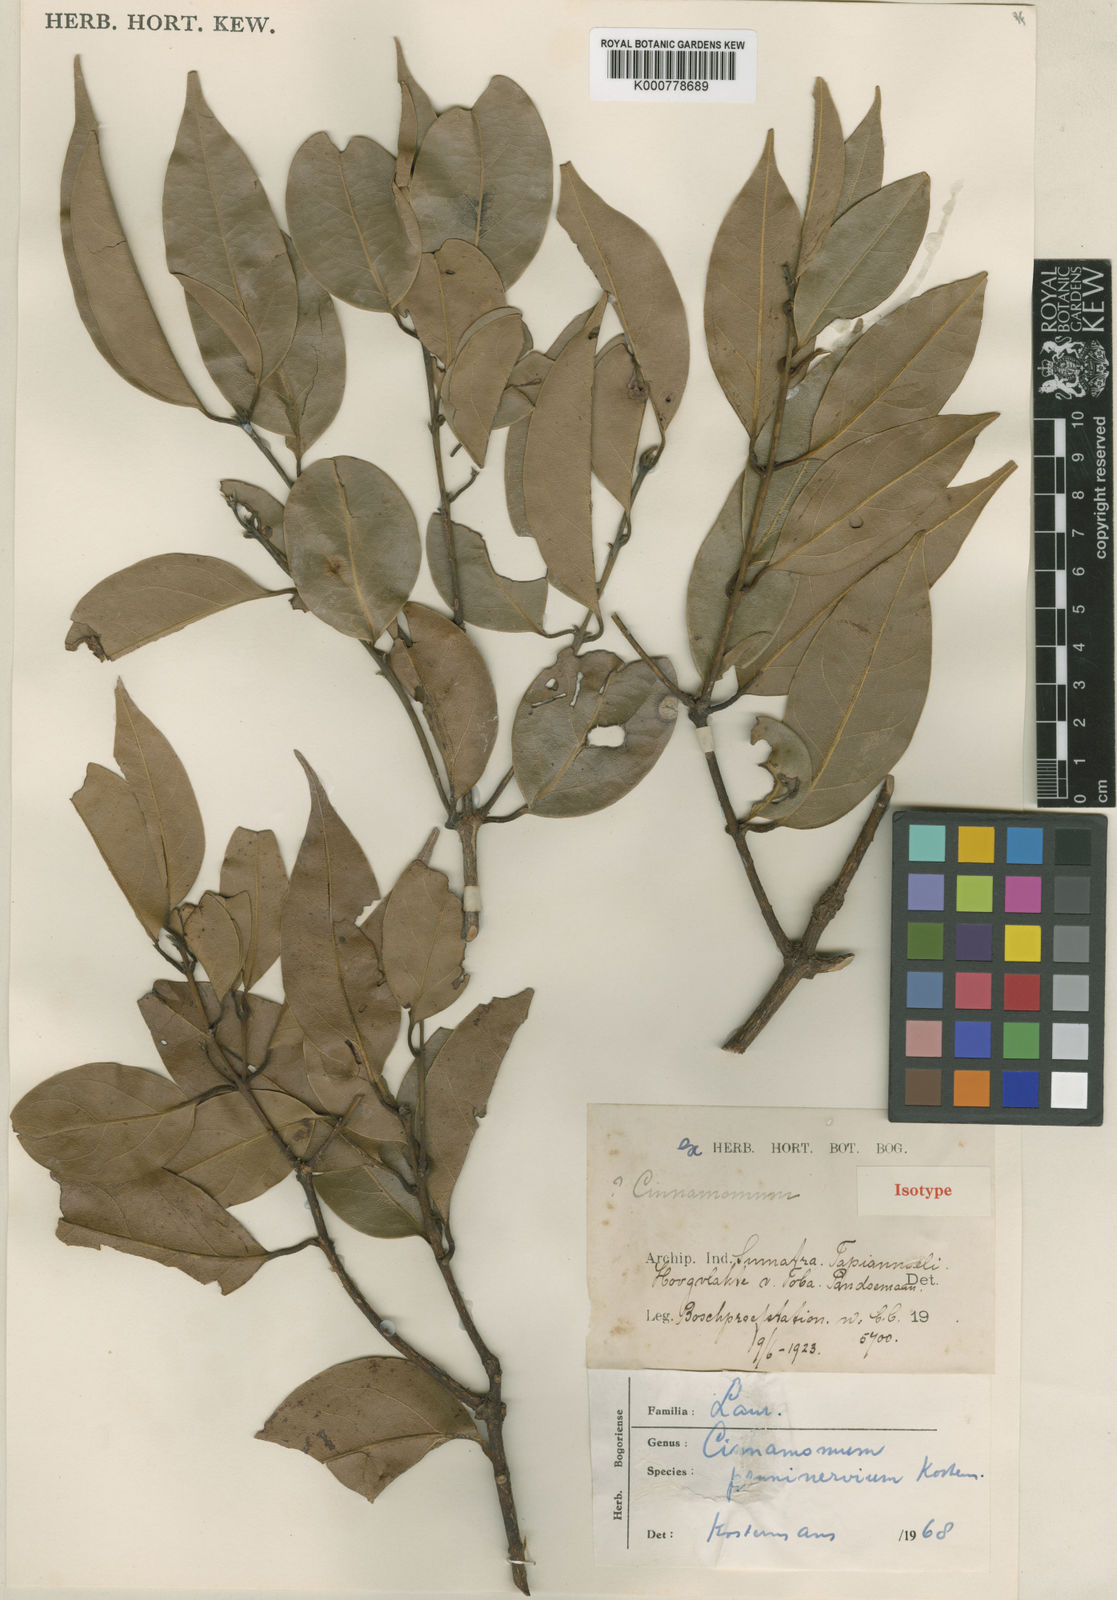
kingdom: Plantae
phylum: Tracheophyta
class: Magnoliopsida
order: Laurales
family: Lauraceae
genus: Cinnamomum
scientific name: Cinnamomum parthenoxylon
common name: Martaban camphor wood
